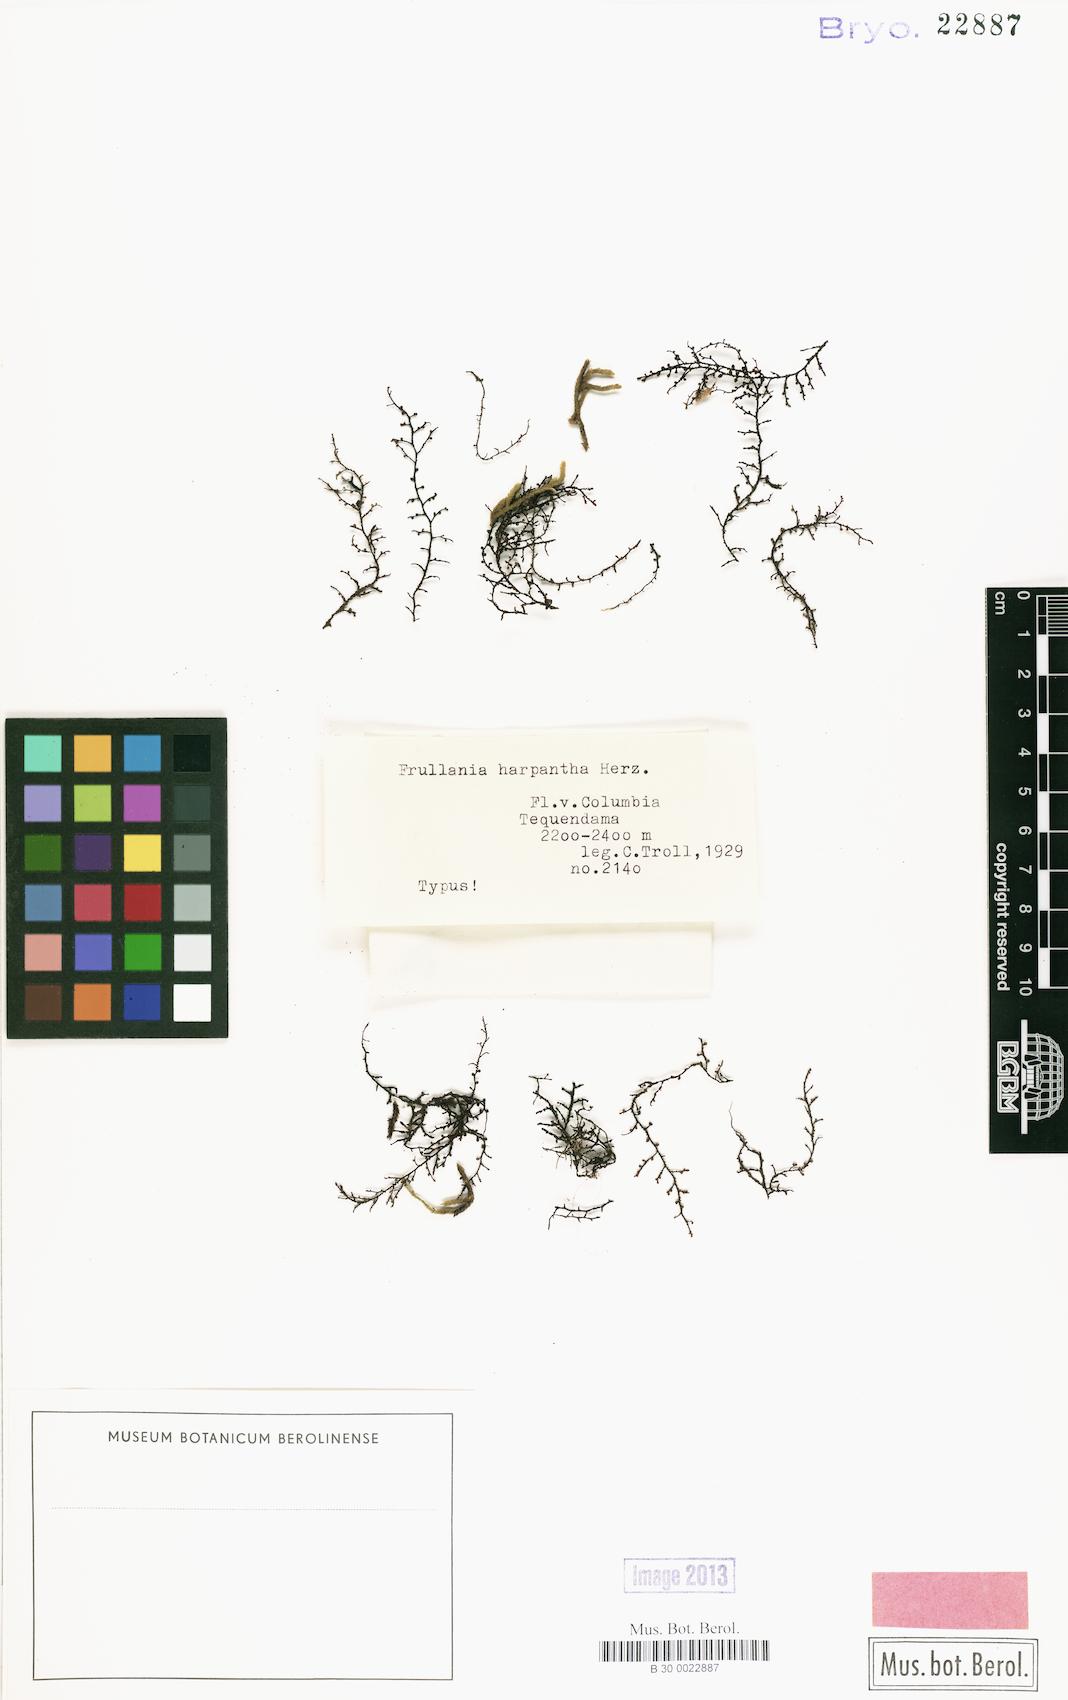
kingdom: Plantae
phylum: Marchantiophyta
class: Jungermanniopsida
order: Porellales
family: Frullaniaceae
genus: Frullania
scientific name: Frullania ambronnii
